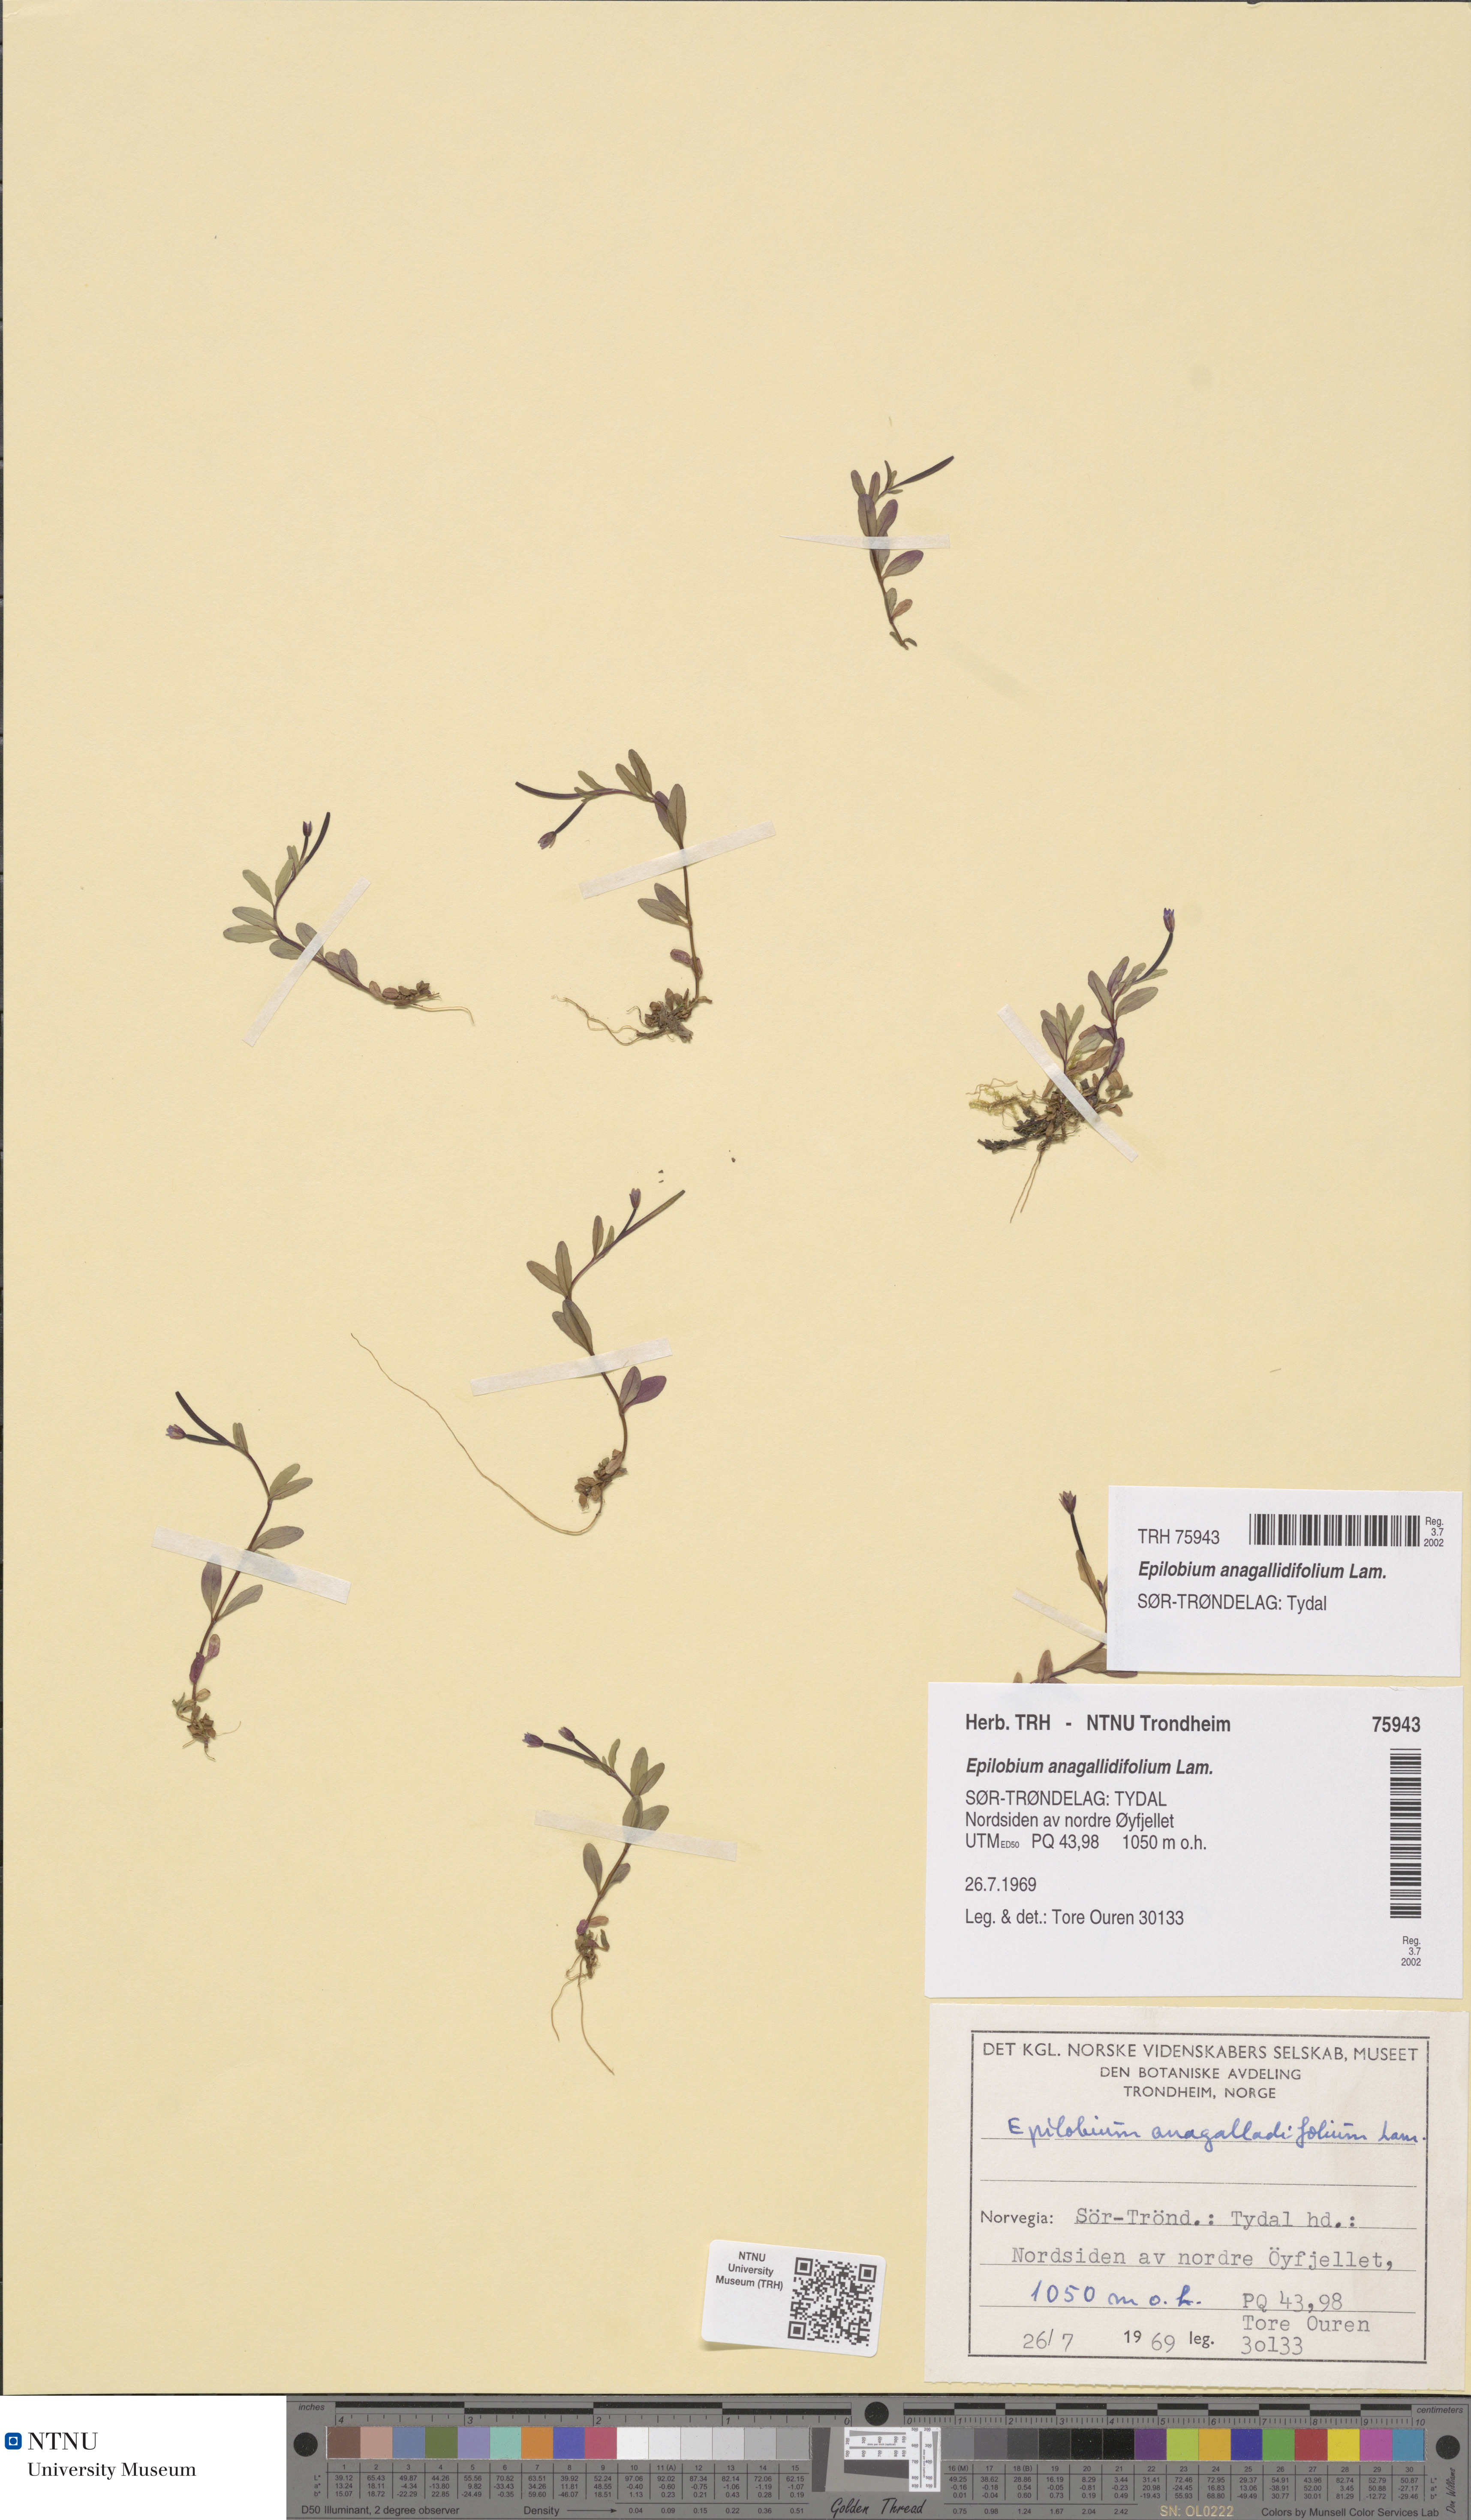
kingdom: Plantae
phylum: Tracheophyta
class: Magnoliopsida
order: Myrtales
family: Onagraceae
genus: Epilobium
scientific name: Epilobium anagallidifolium
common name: Alpine willowherb
